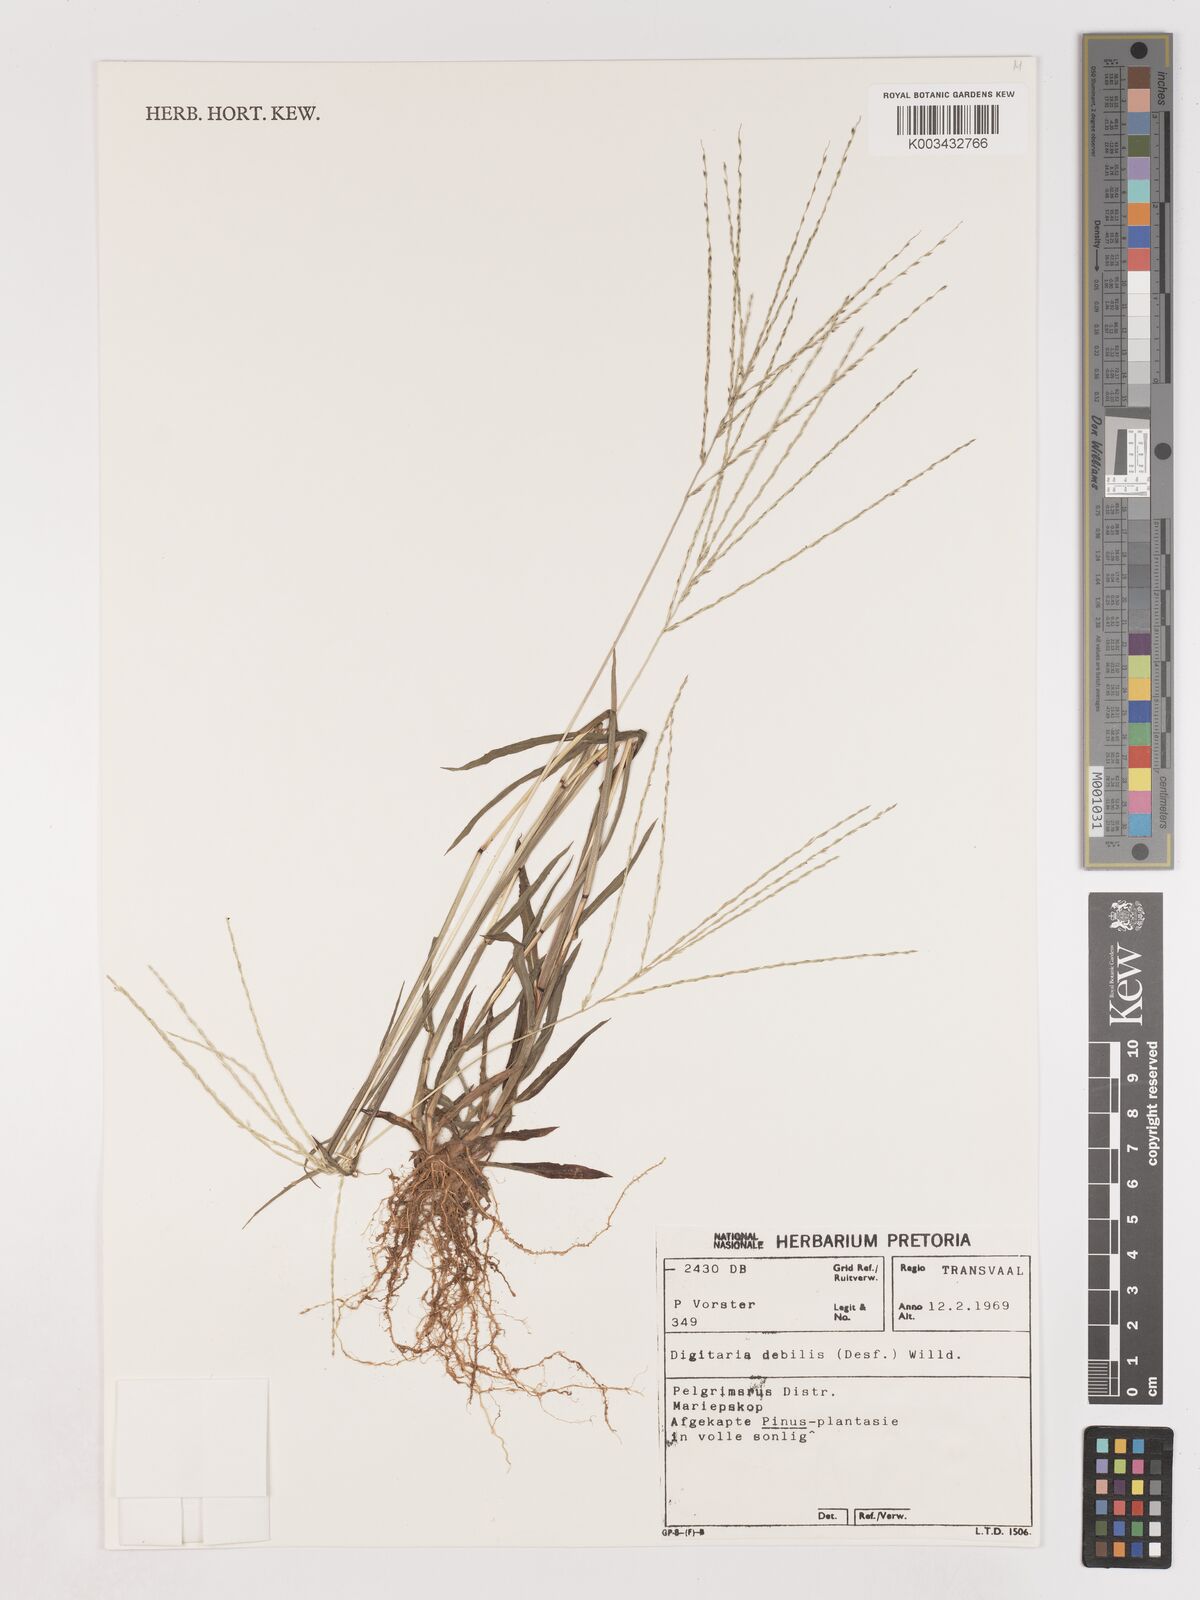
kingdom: Plantae
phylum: Tracheophyta
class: Liliopsida
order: Poales
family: Poaceae
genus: Digitaria
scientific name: Digitaria debilis
